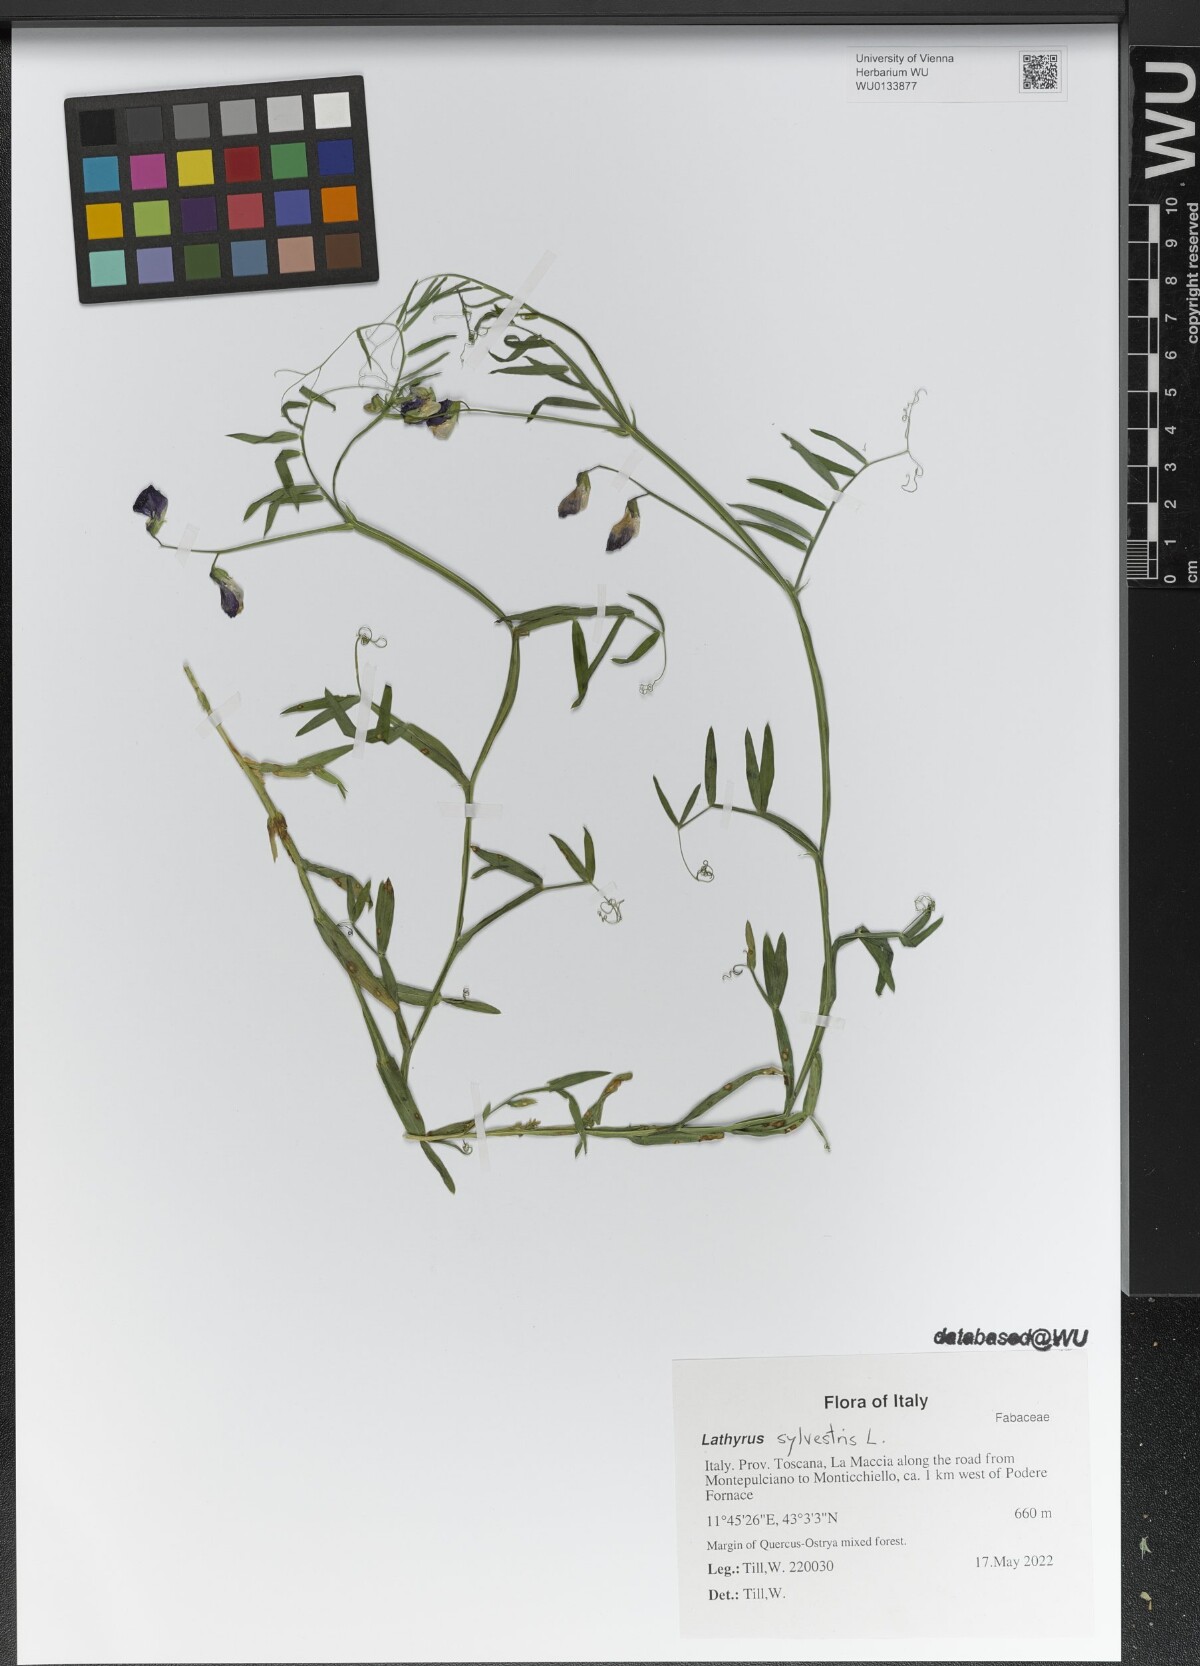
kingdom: Plantae
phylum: Tracheophyta
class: Magnoliopsida
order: Fabales
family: Fabaceae
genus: Lathyrus
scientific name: Lathyrus sylvestris
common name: Flat pea
